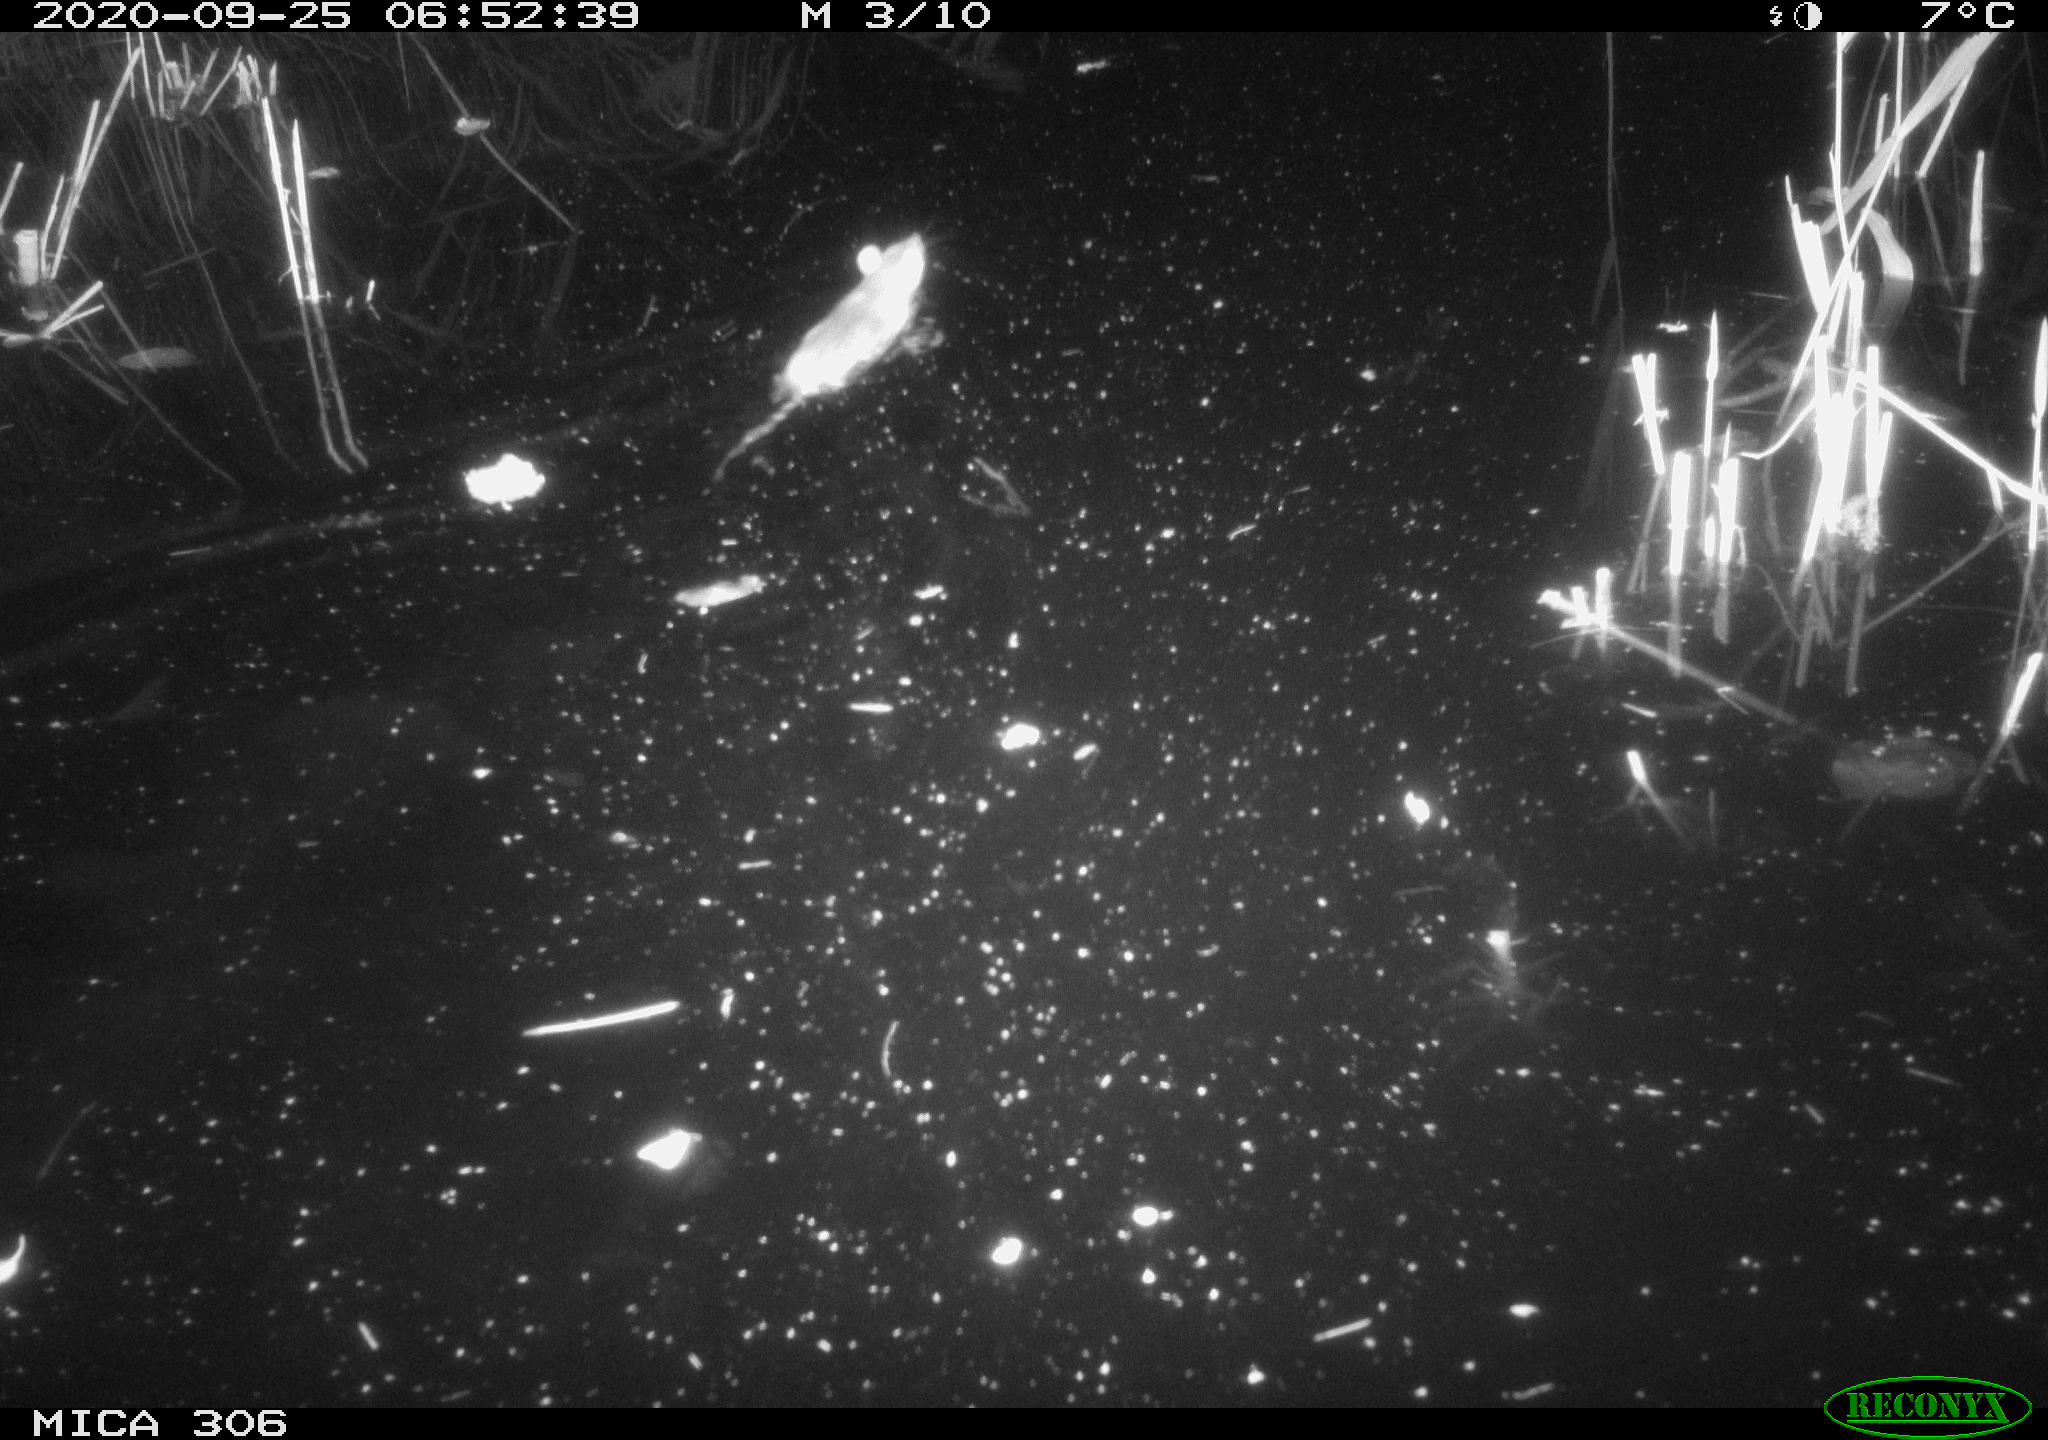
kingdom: Animalia
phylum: Chordata
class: Mammalia
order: Rodentia
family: Muridae
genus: Rattus
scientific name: Rattus norvegicus
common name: Brown rat
